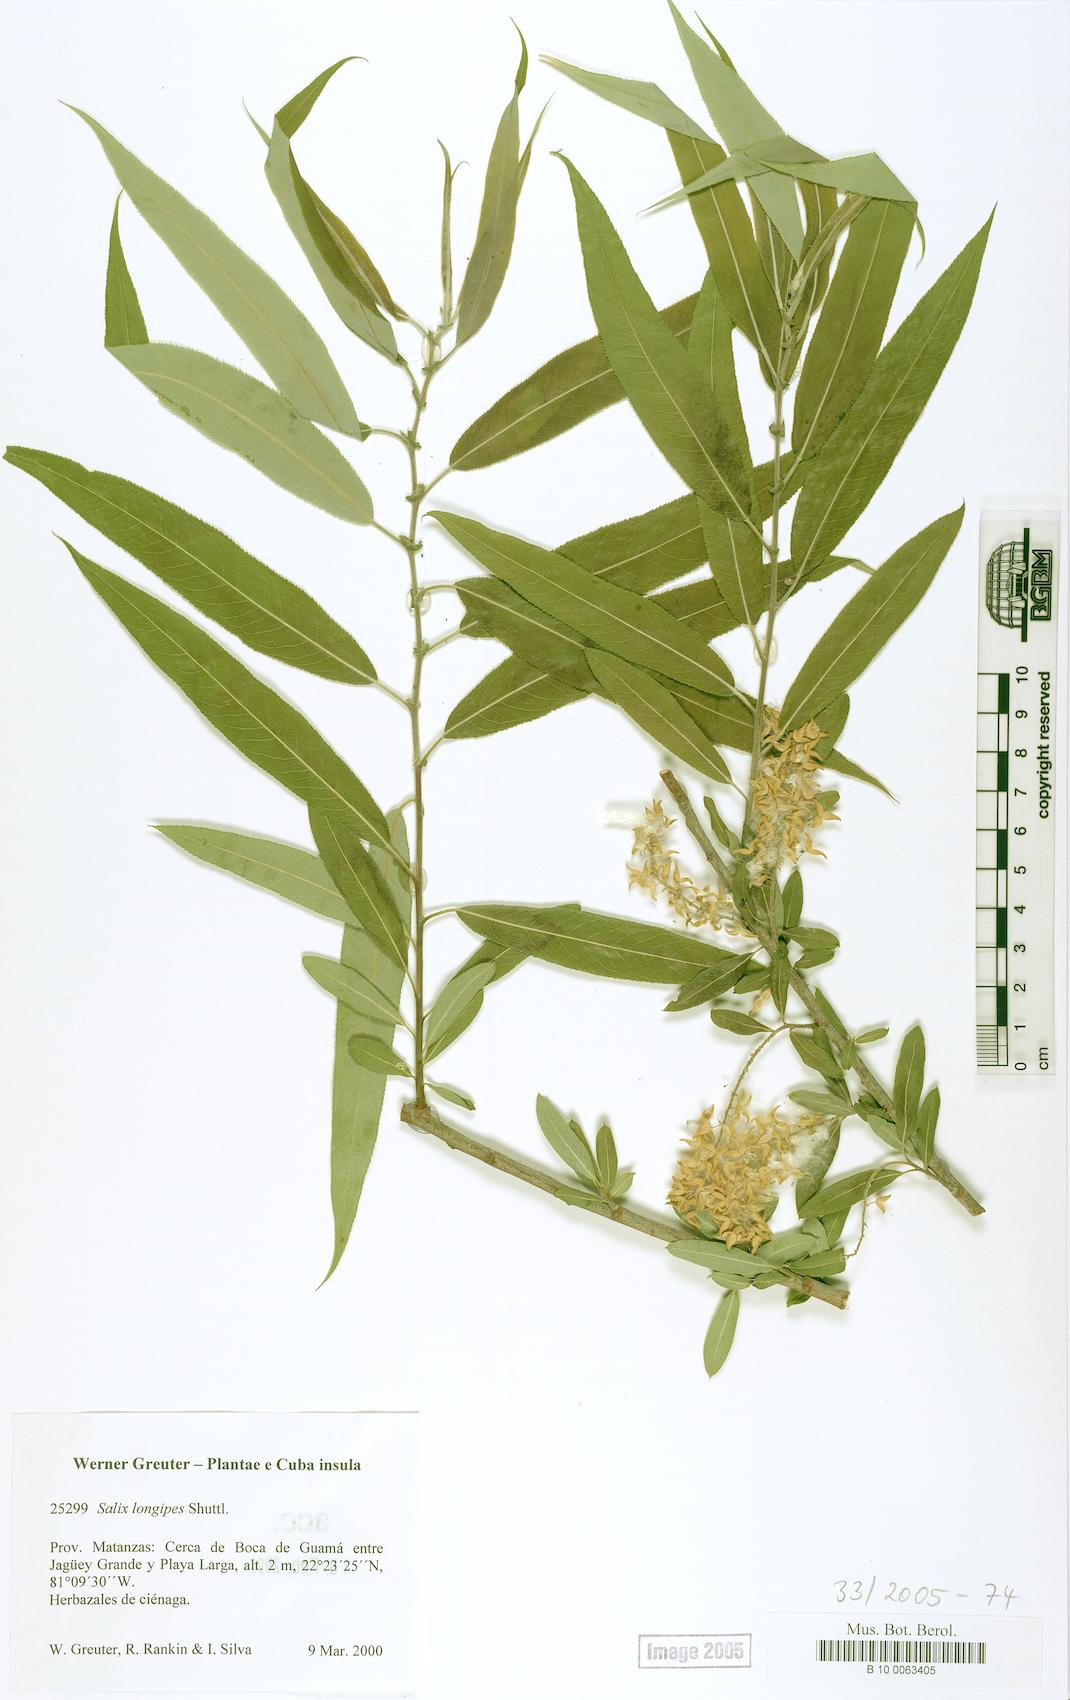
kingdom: Plantae
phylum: Tracheophyta
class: Magnoliopsida
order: Malpighiales
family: Salicaceae
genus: Salix
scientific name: Salix caroliniana
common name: Carolina willow
